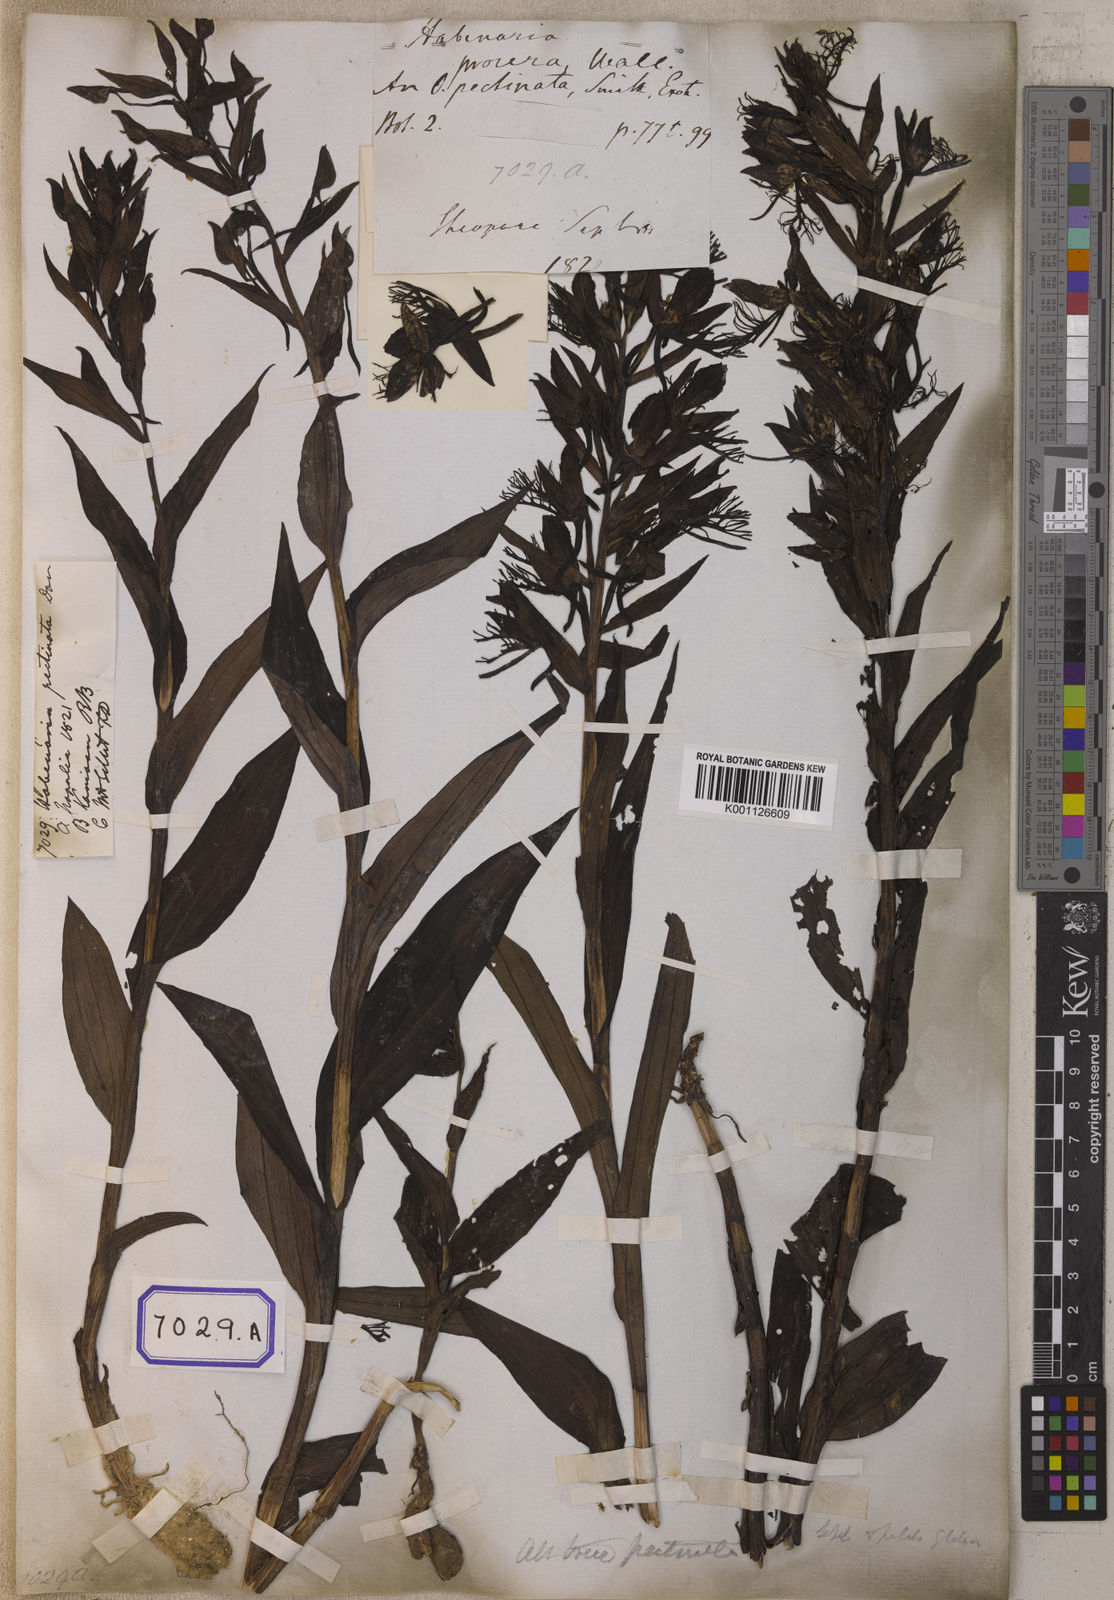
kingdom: Plantae
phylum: Tracheophyta
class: Liliopsida
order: Asparagales
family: Orchidaceae
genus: Habenaria
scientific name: Habenaria pectinata
